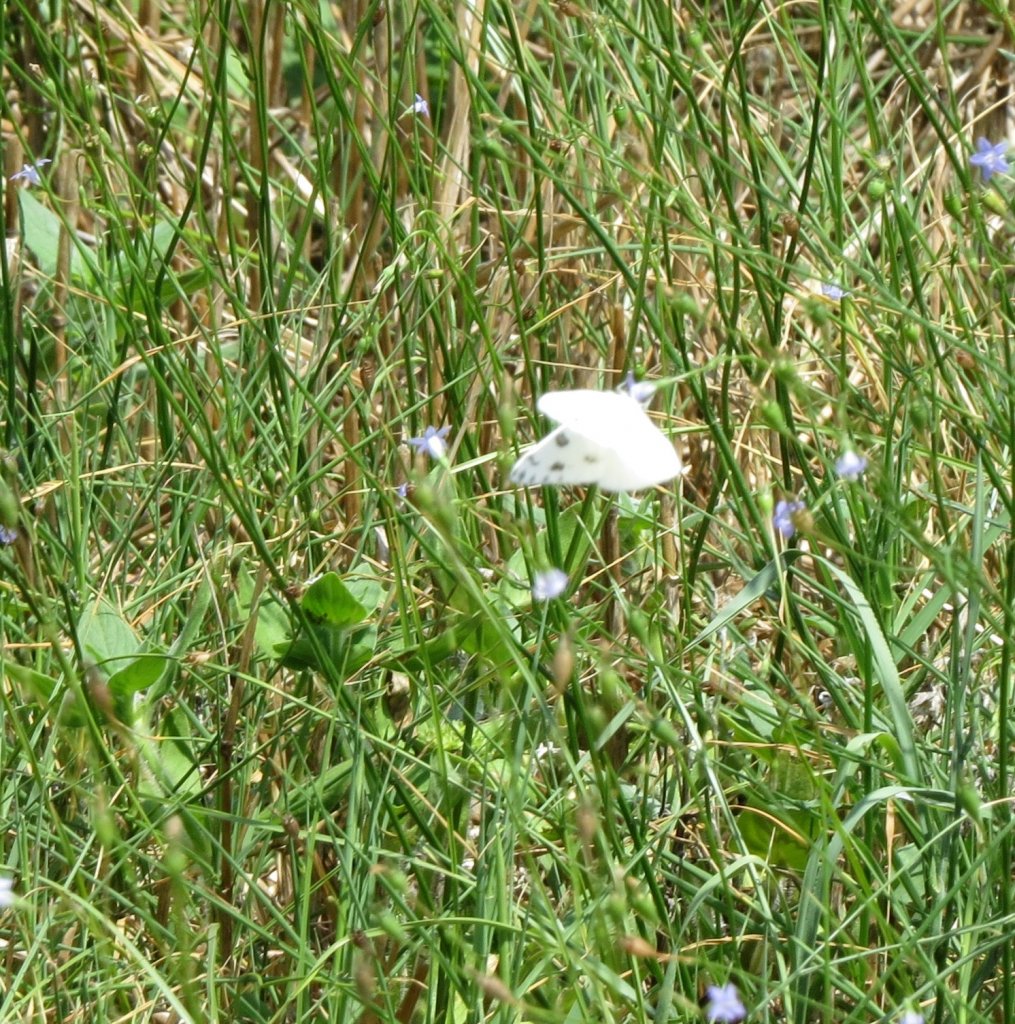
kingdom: Animalia
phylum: Arthropoda
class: Insecta
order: Lepidoptera
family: Pieridae
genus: Pontia
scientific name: Pontia protodice
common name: Checkered White
